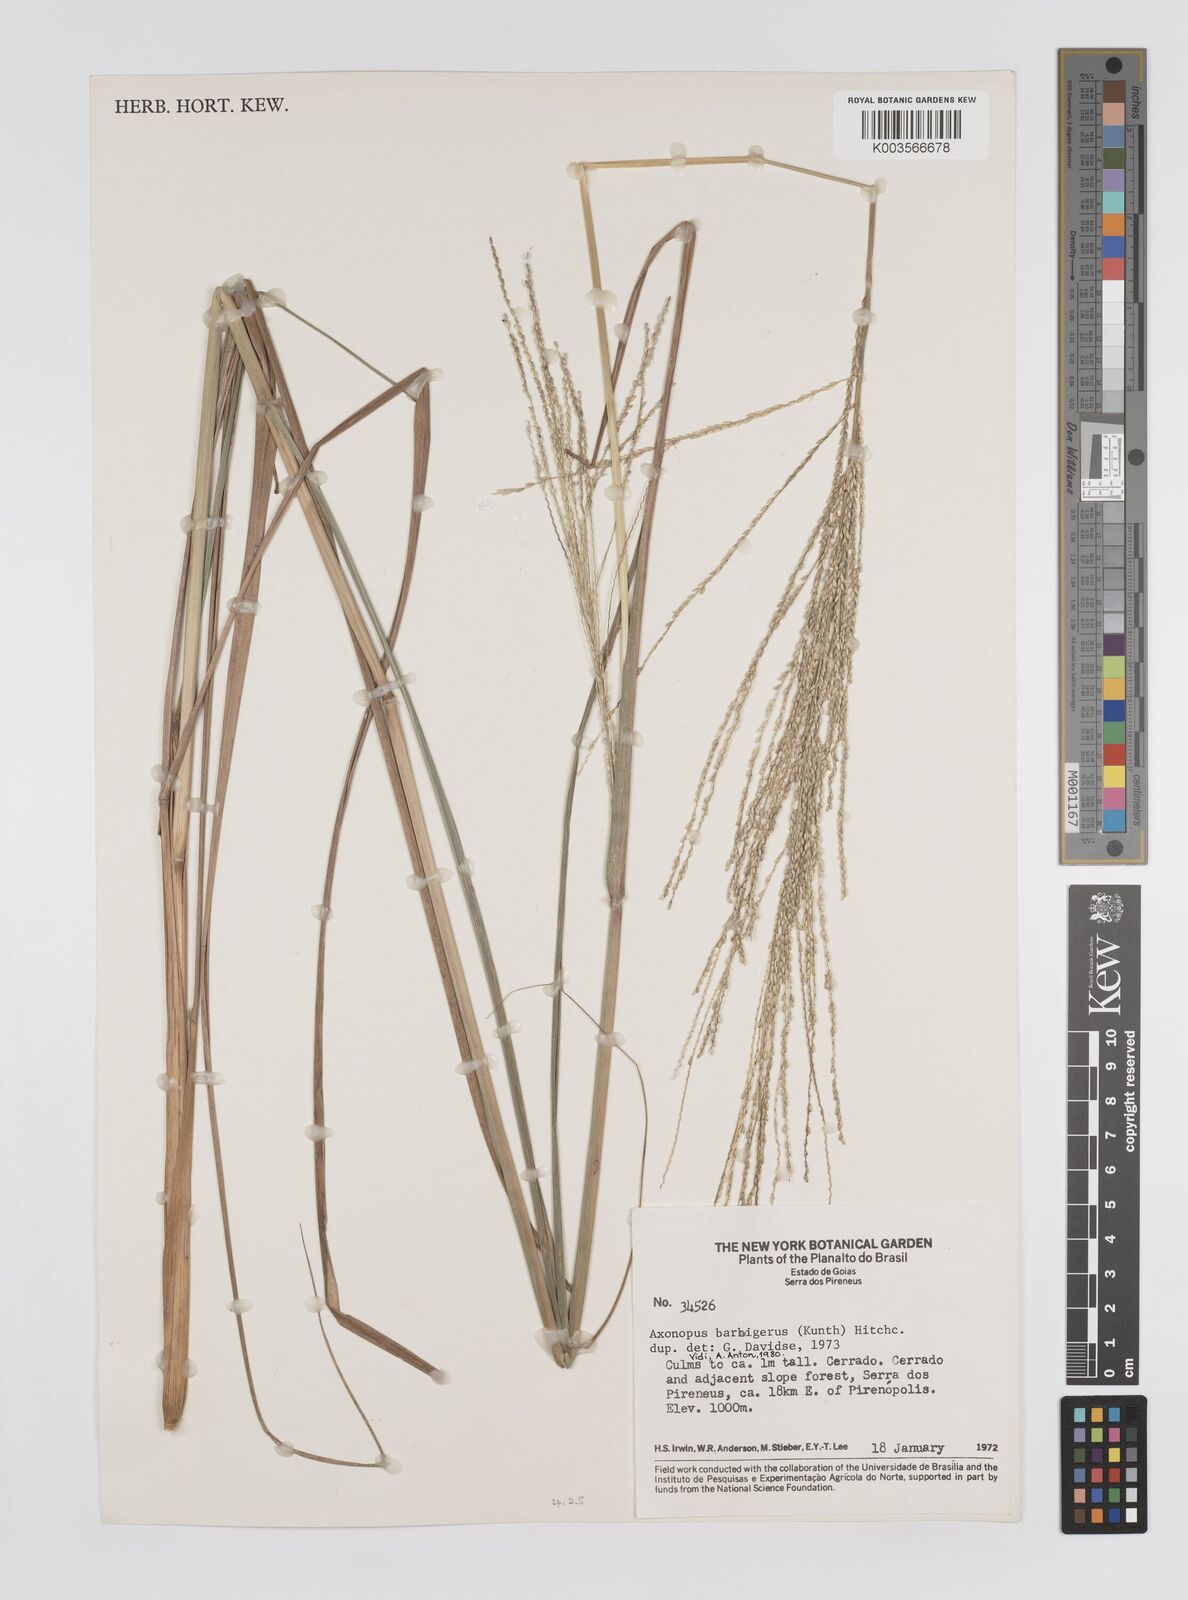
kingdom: Plantae
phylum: Tracheophyta
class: Liliopsida
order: Poales
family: Poaceae
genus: Axonopus
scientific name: Axonopus siccus
